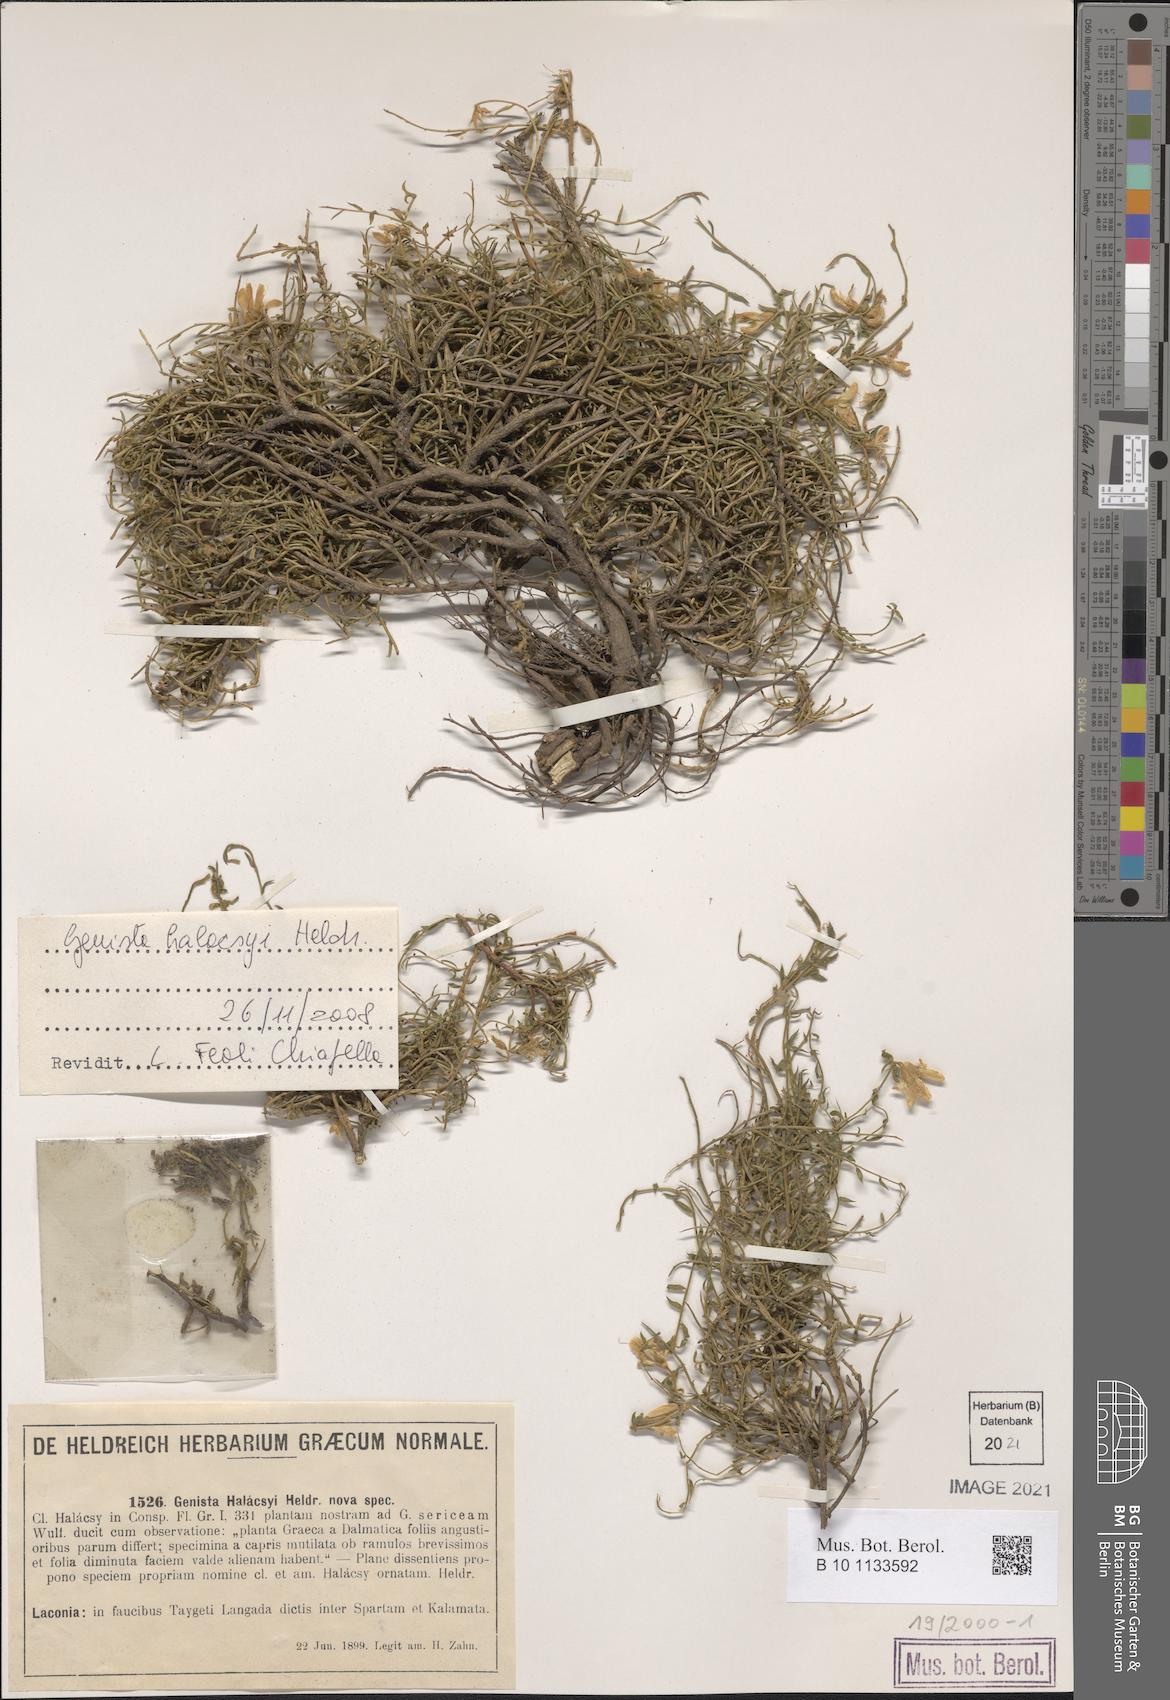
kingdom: Plantae
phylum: Tracheophyta
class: Magnoliopsida
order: Fabales
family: Fabaceae
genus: Genista
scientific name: Genista halacsyi
